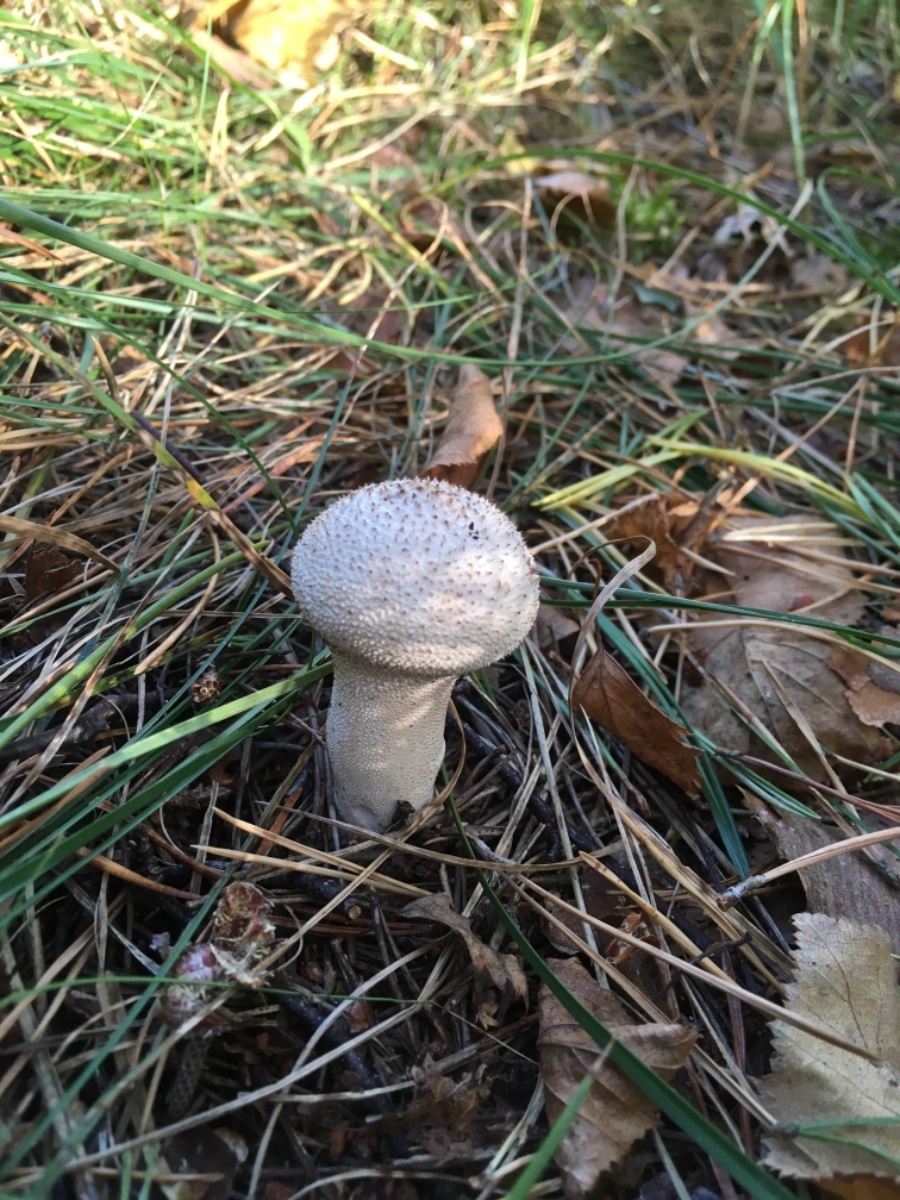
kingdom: Fungi
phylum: Basidiomycota
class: Agaricomycetes
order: Agaricales
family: Agaricaceae
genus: Lycoperdon
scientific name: Lycoperdon
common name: støvbold
